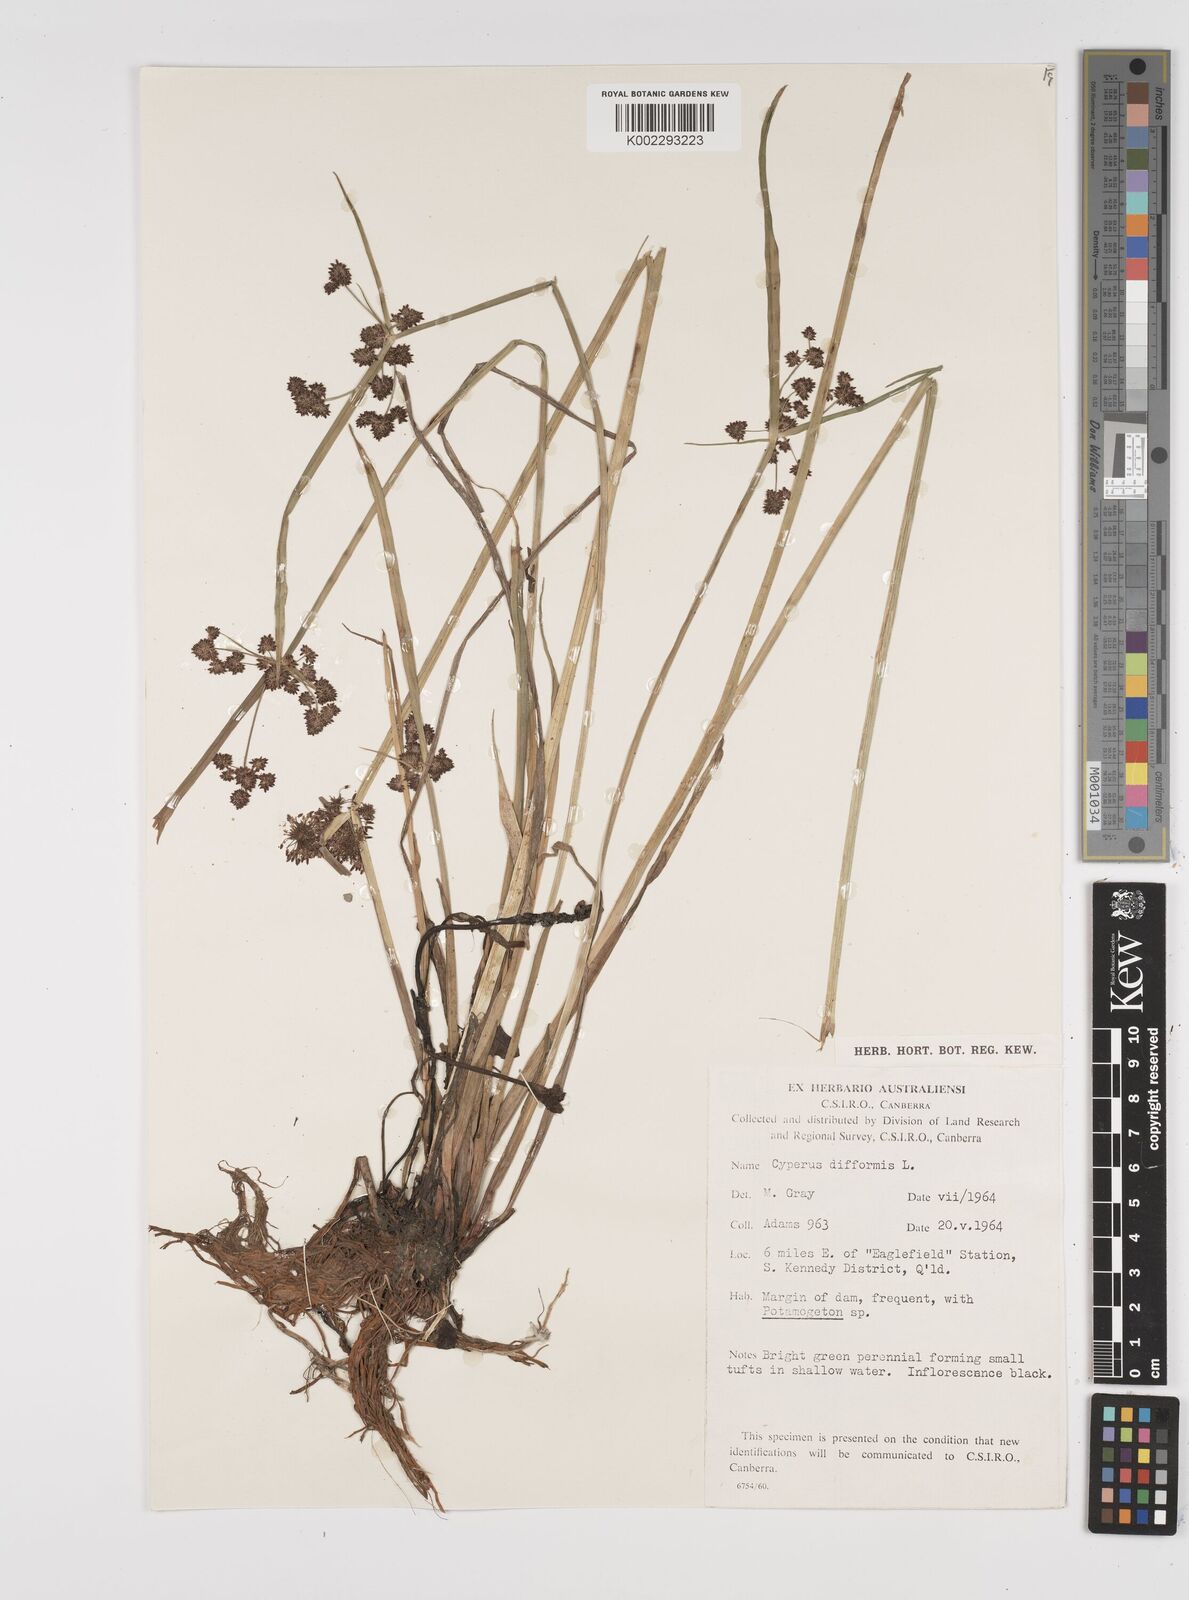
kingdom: Plantae
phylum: Tracheophyta
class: Liliopsida
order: Poales
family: Cyperaceae
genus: Cyperus
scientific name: Cyperus difformis
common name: Variable flatsedge
